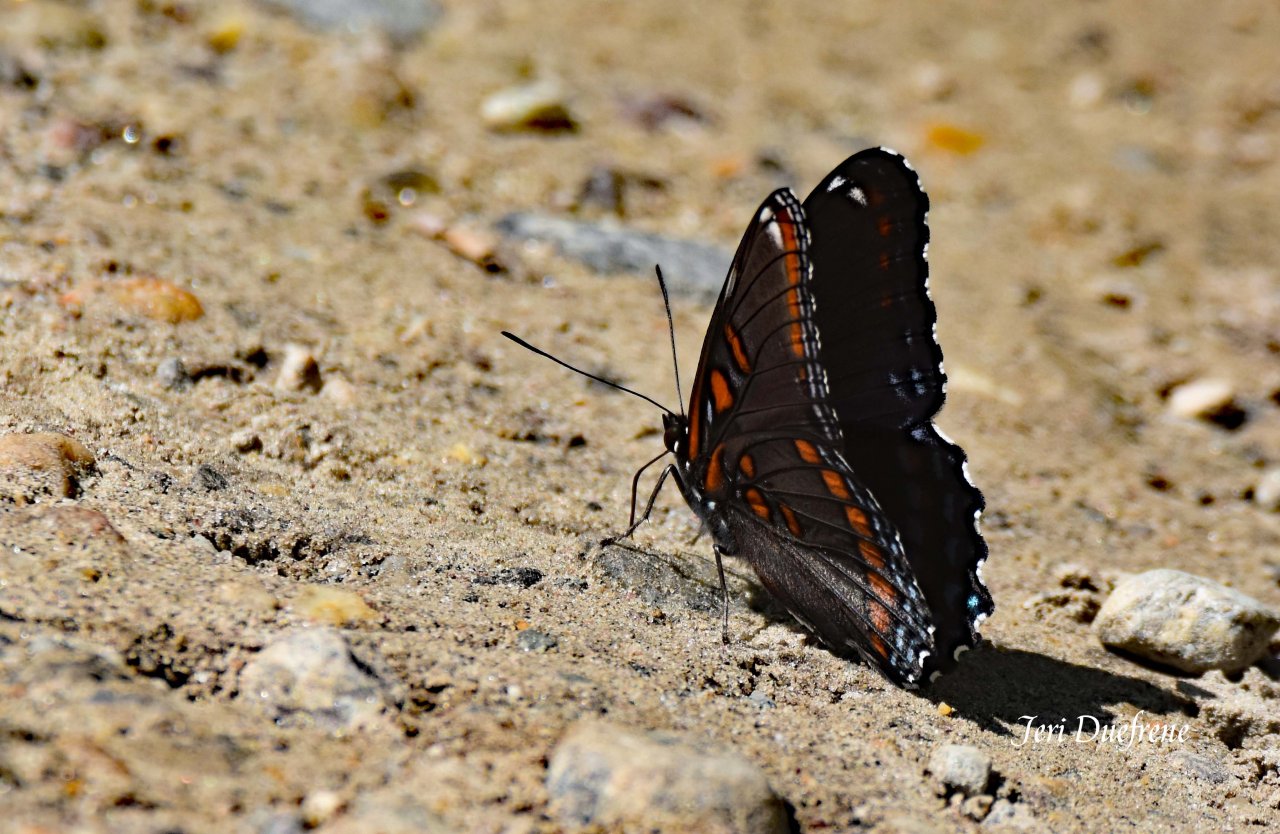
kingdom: Animalia
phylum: Arthropoda
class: Insecta
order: Lepidoptera
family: Nymphalidae
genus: Limenitis
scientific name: Limenitis astyanax
